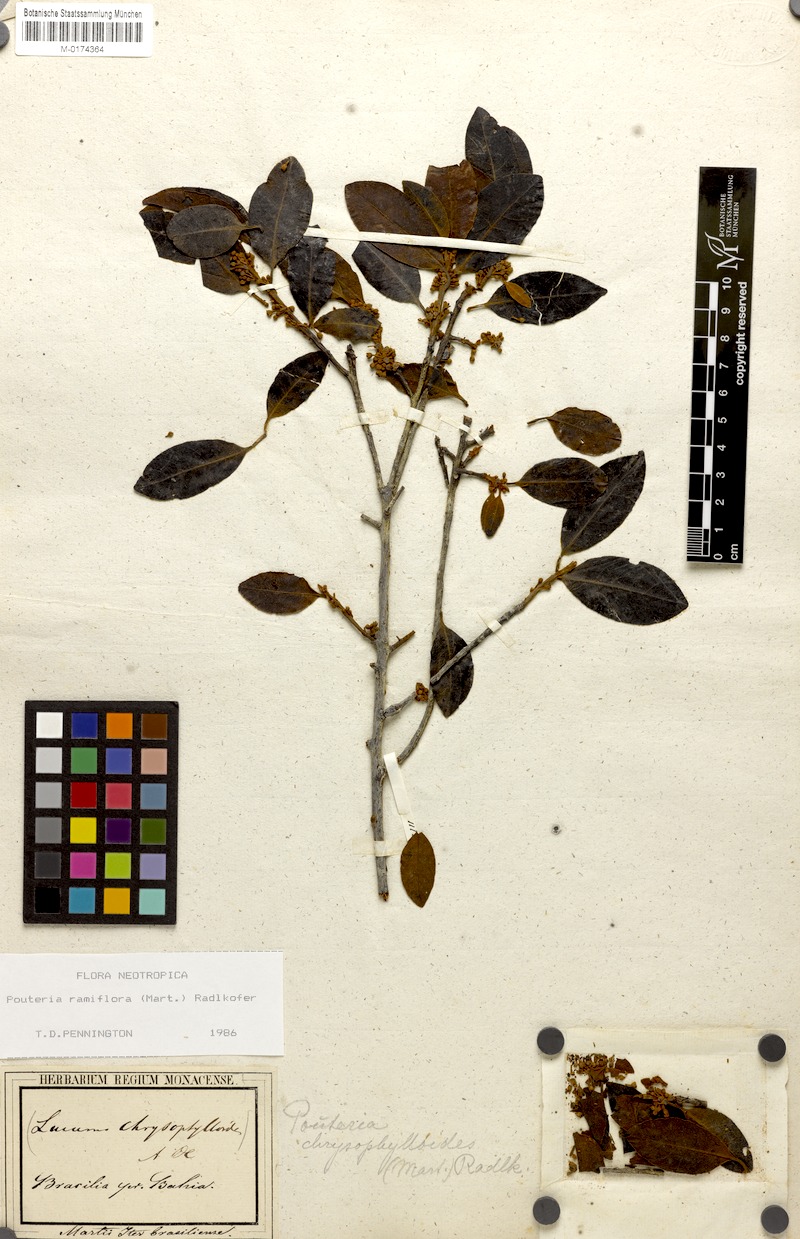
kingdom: Plantae
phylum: Tracheophyta
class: Magnoliopsida
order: Ericales
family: Sapotaceae
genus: Pouteria
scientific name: Pouteria ramiflora
